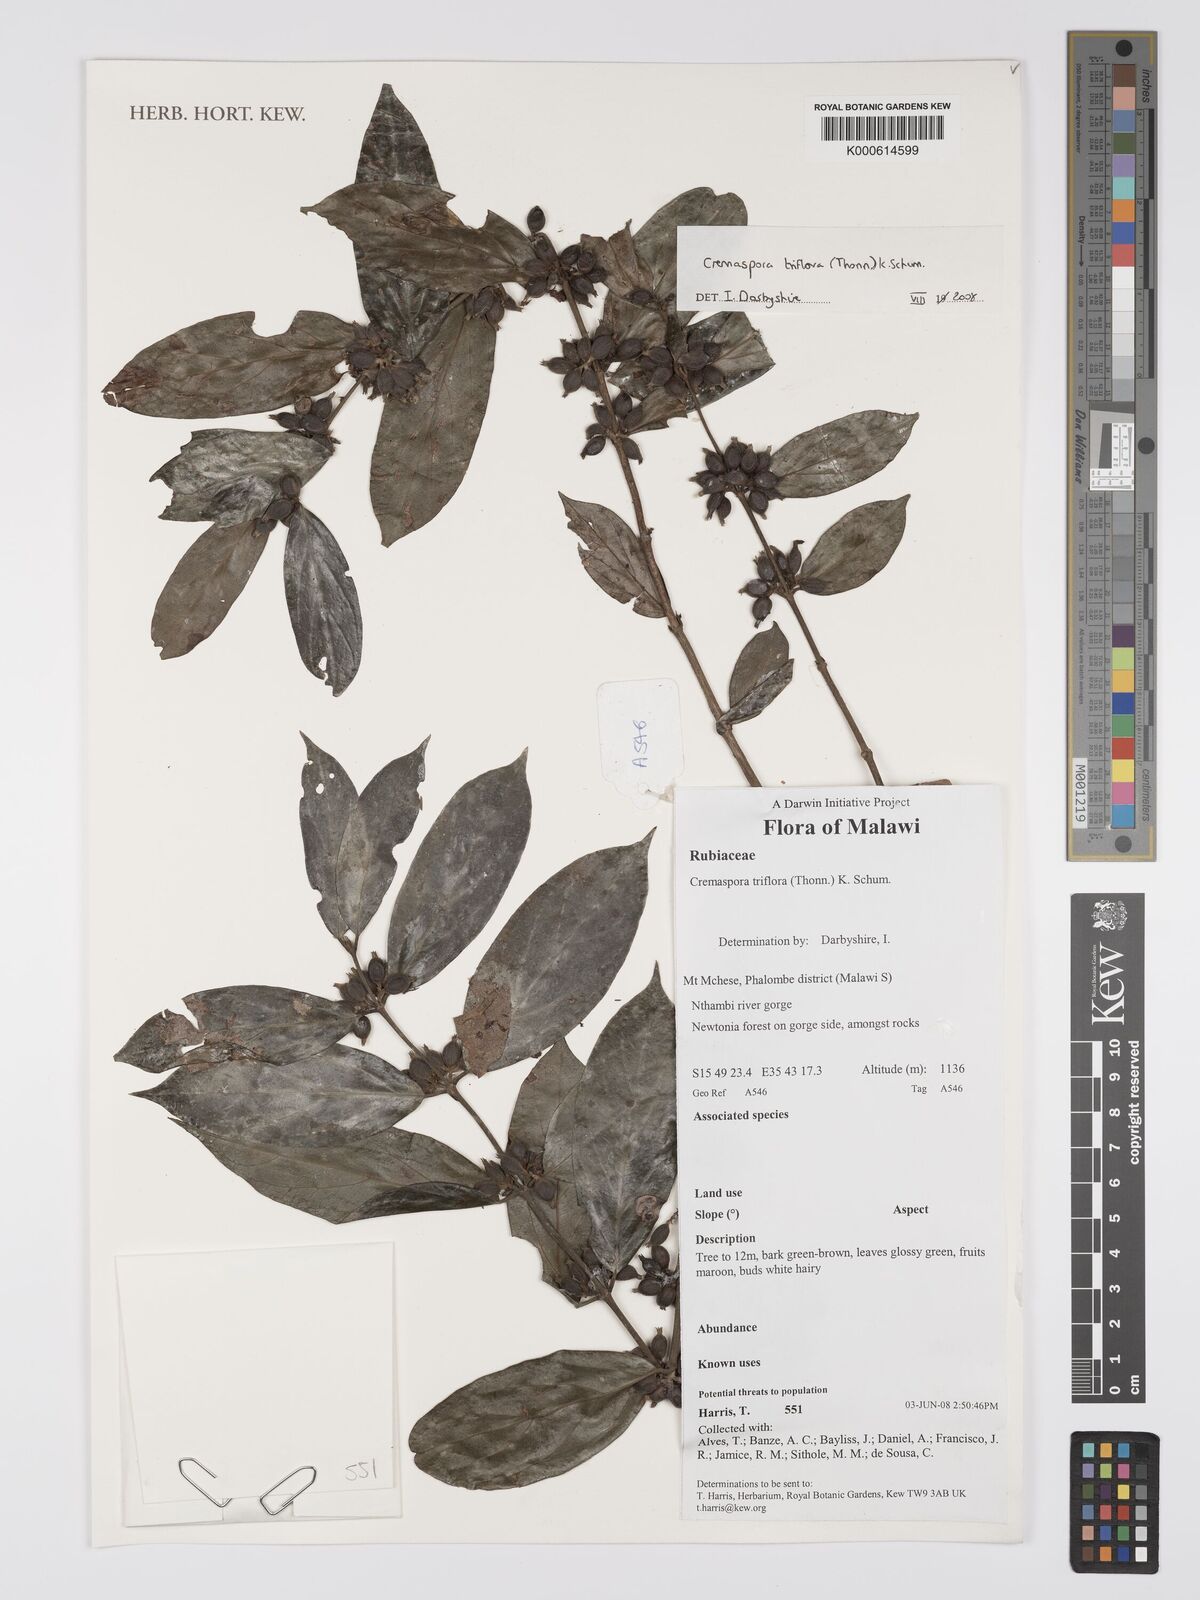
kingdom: Plantae
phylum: Tracheophyta
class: Magnoliopsida
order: Gentianales
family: Rubiaceae
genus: Cremaspora
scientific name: Cremaspora triflora
